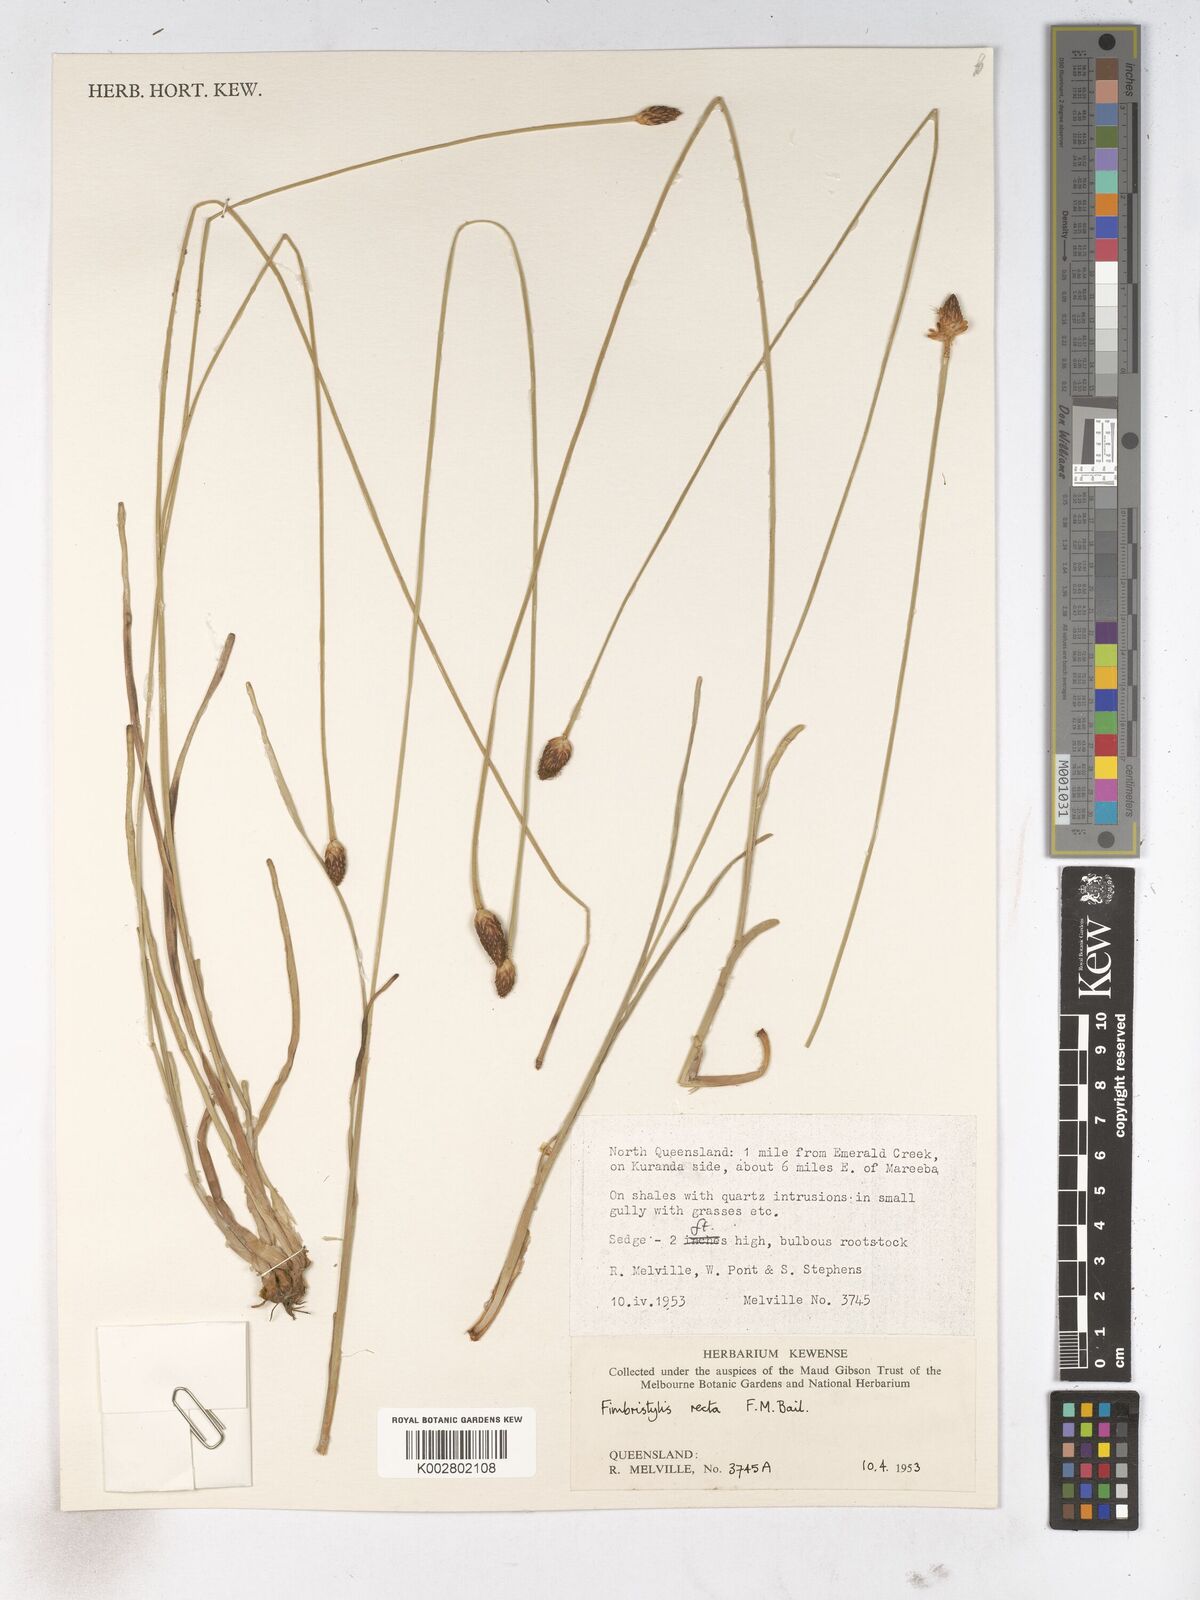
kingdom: Plantae
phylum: Tracheophyta
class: Liliopsida
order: Poales
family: Cyperaceae
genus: Fimbristylis
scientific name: Fimbristylis recta
